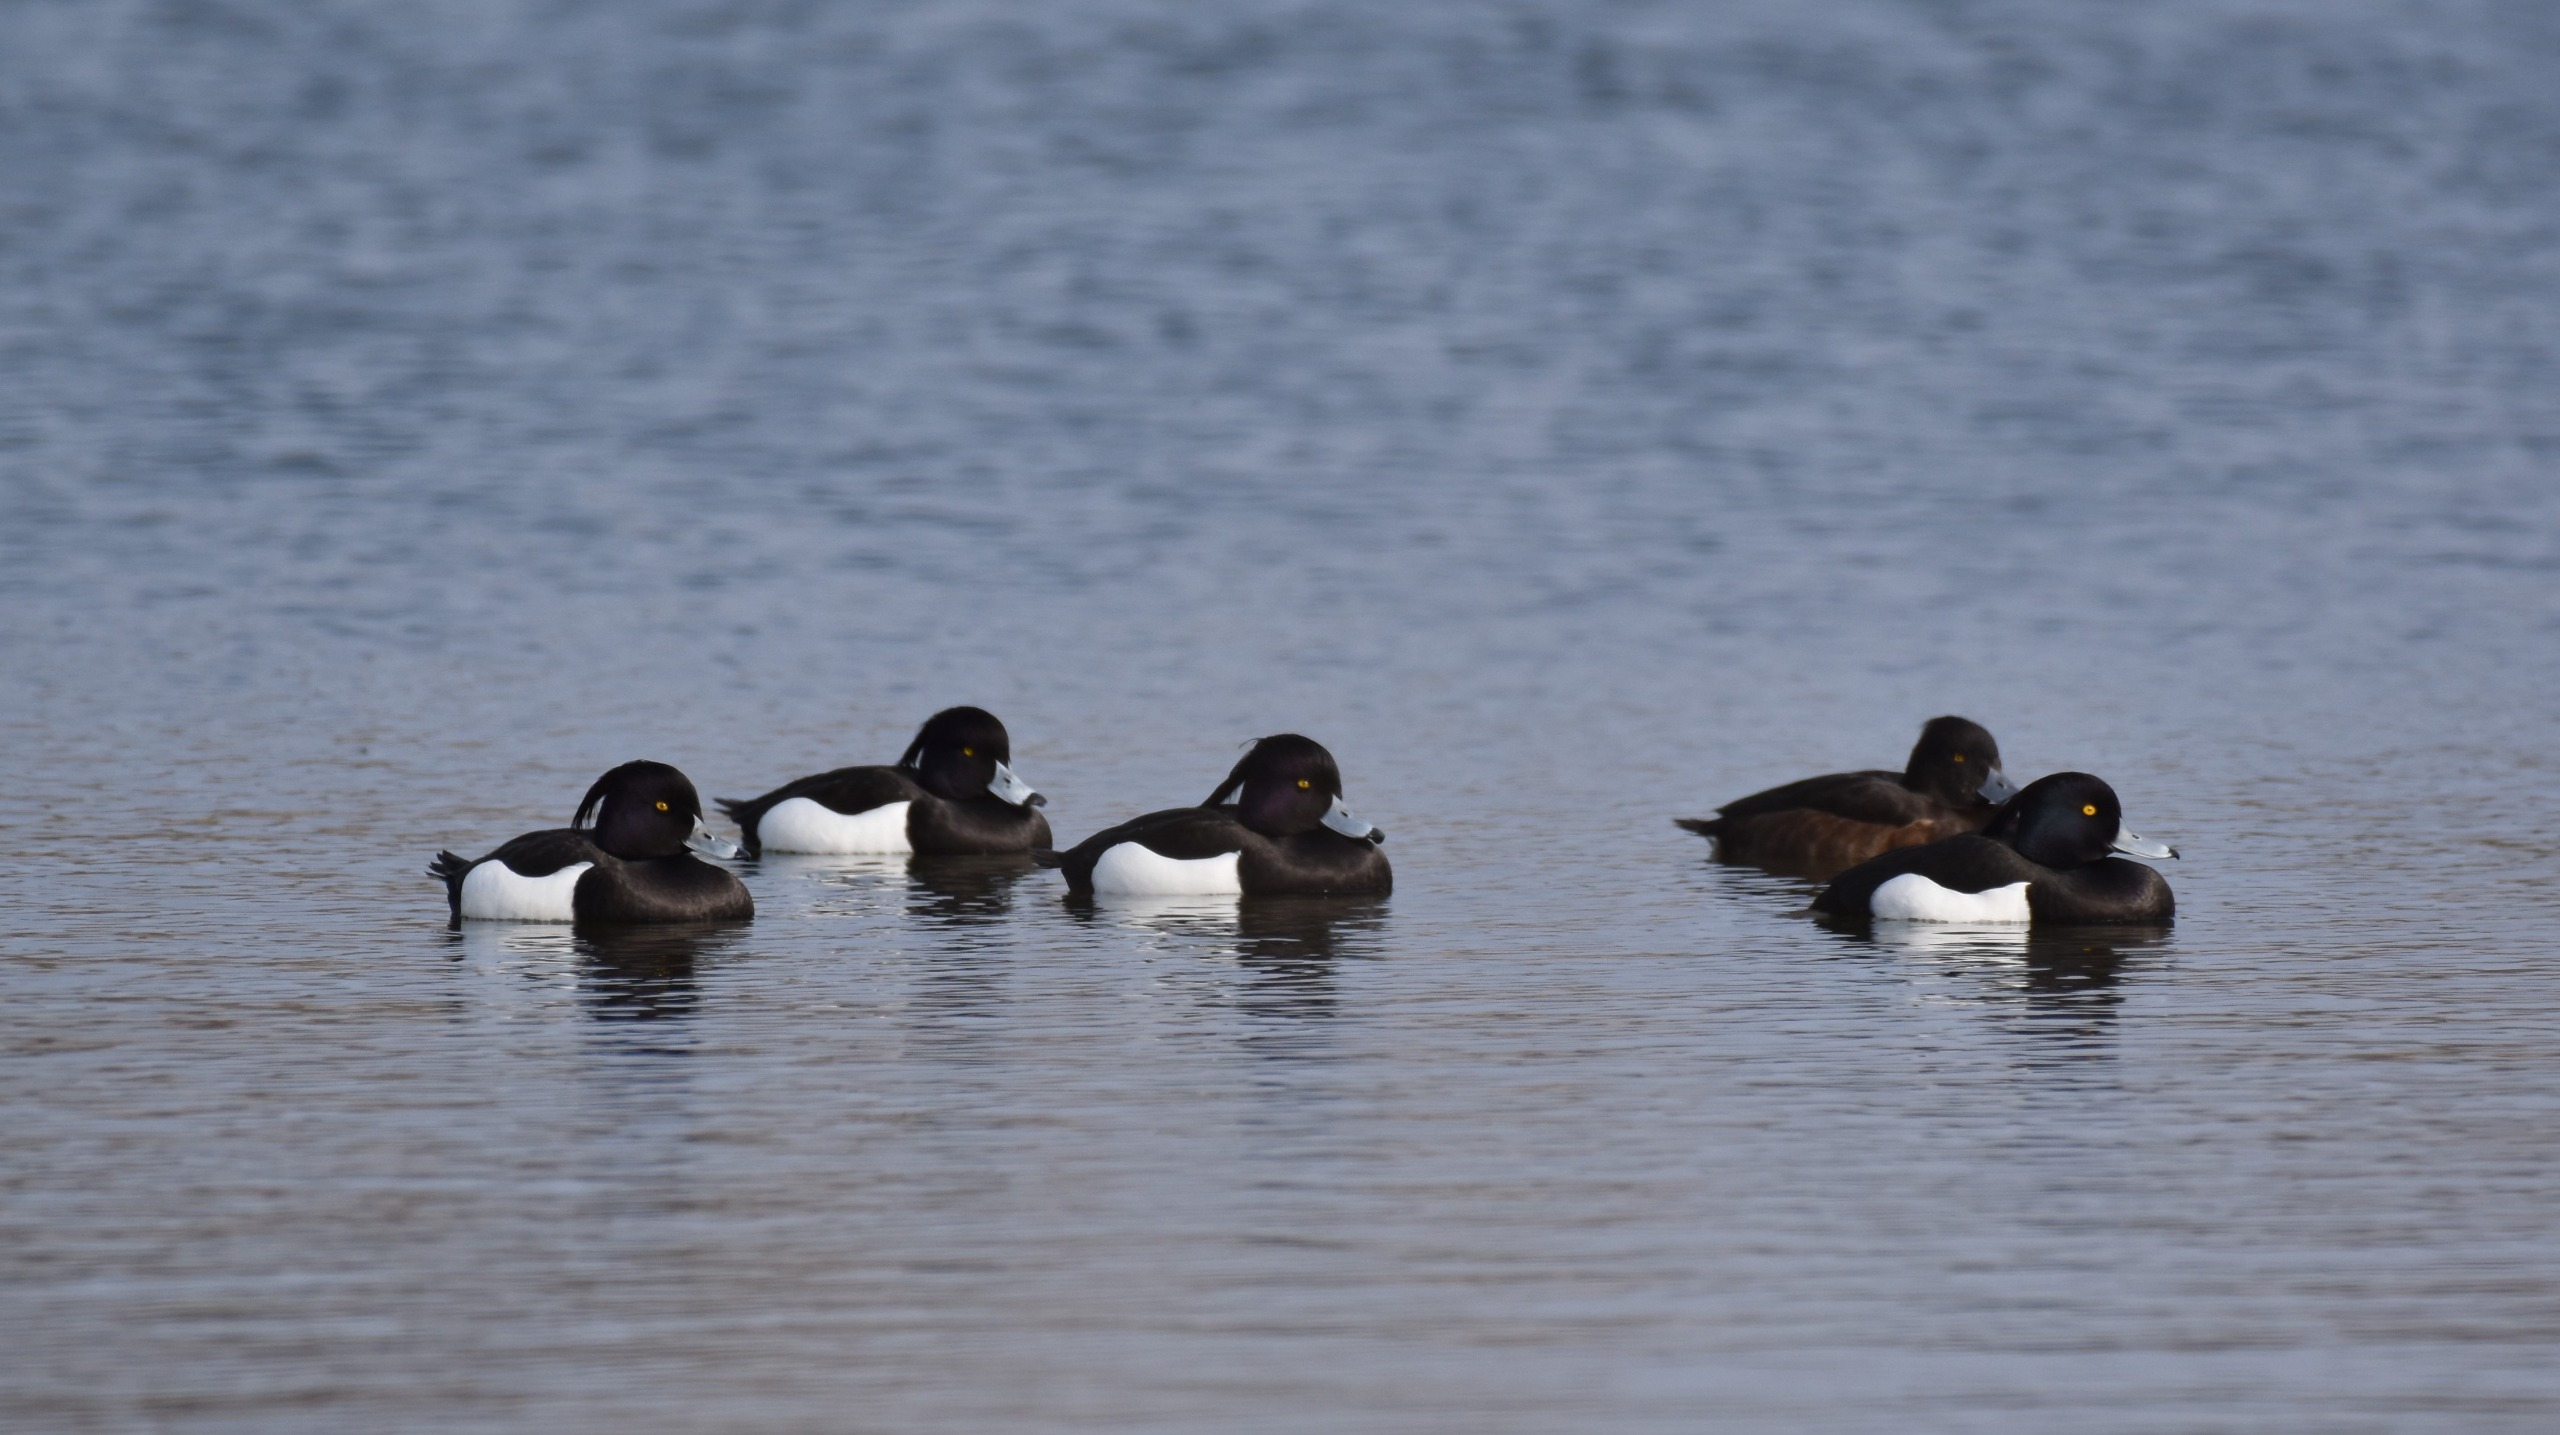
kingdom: Animalia
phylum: Chordata
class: Aves
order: Anseriformes
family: Anatidae
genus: Aythya
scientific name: Aythya fuligula
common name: Troldand
